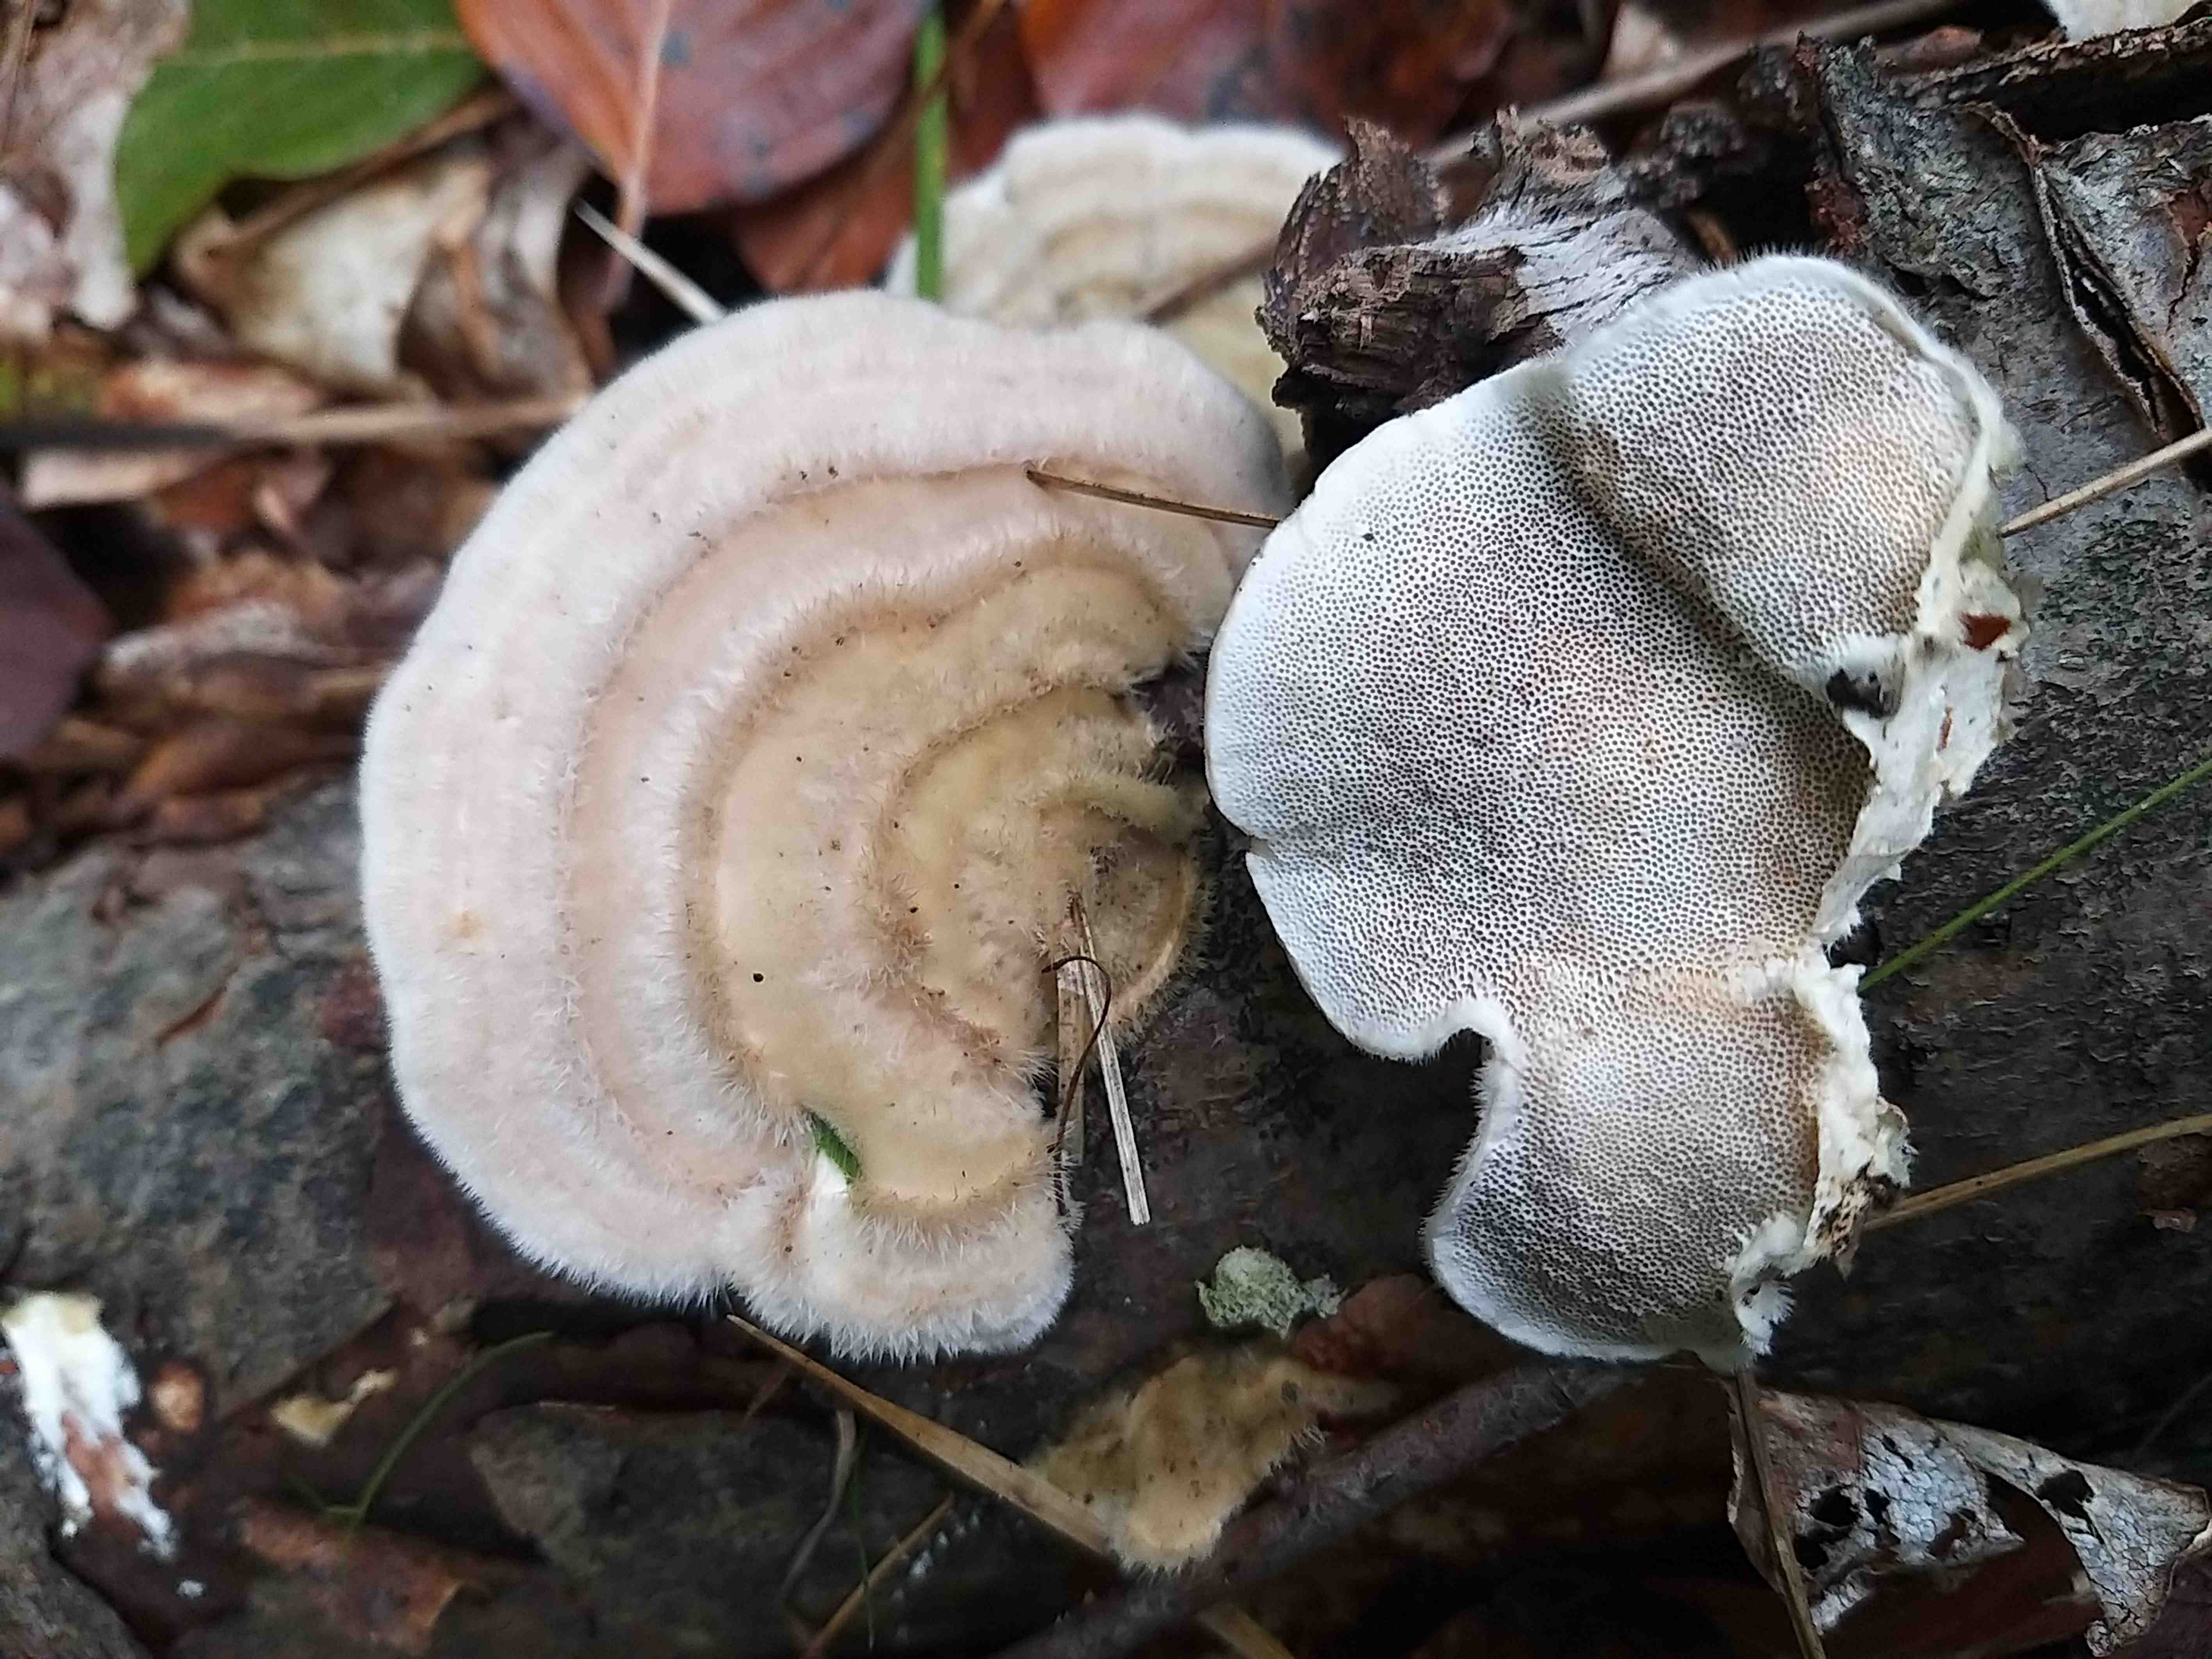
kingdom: Fungi
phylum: Basidiomycota
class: Agaricomycetes
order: Polyporales
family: Polyporaceae
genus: Trametes
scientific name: Trametes hirsuta
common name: håret læderporesvamp
